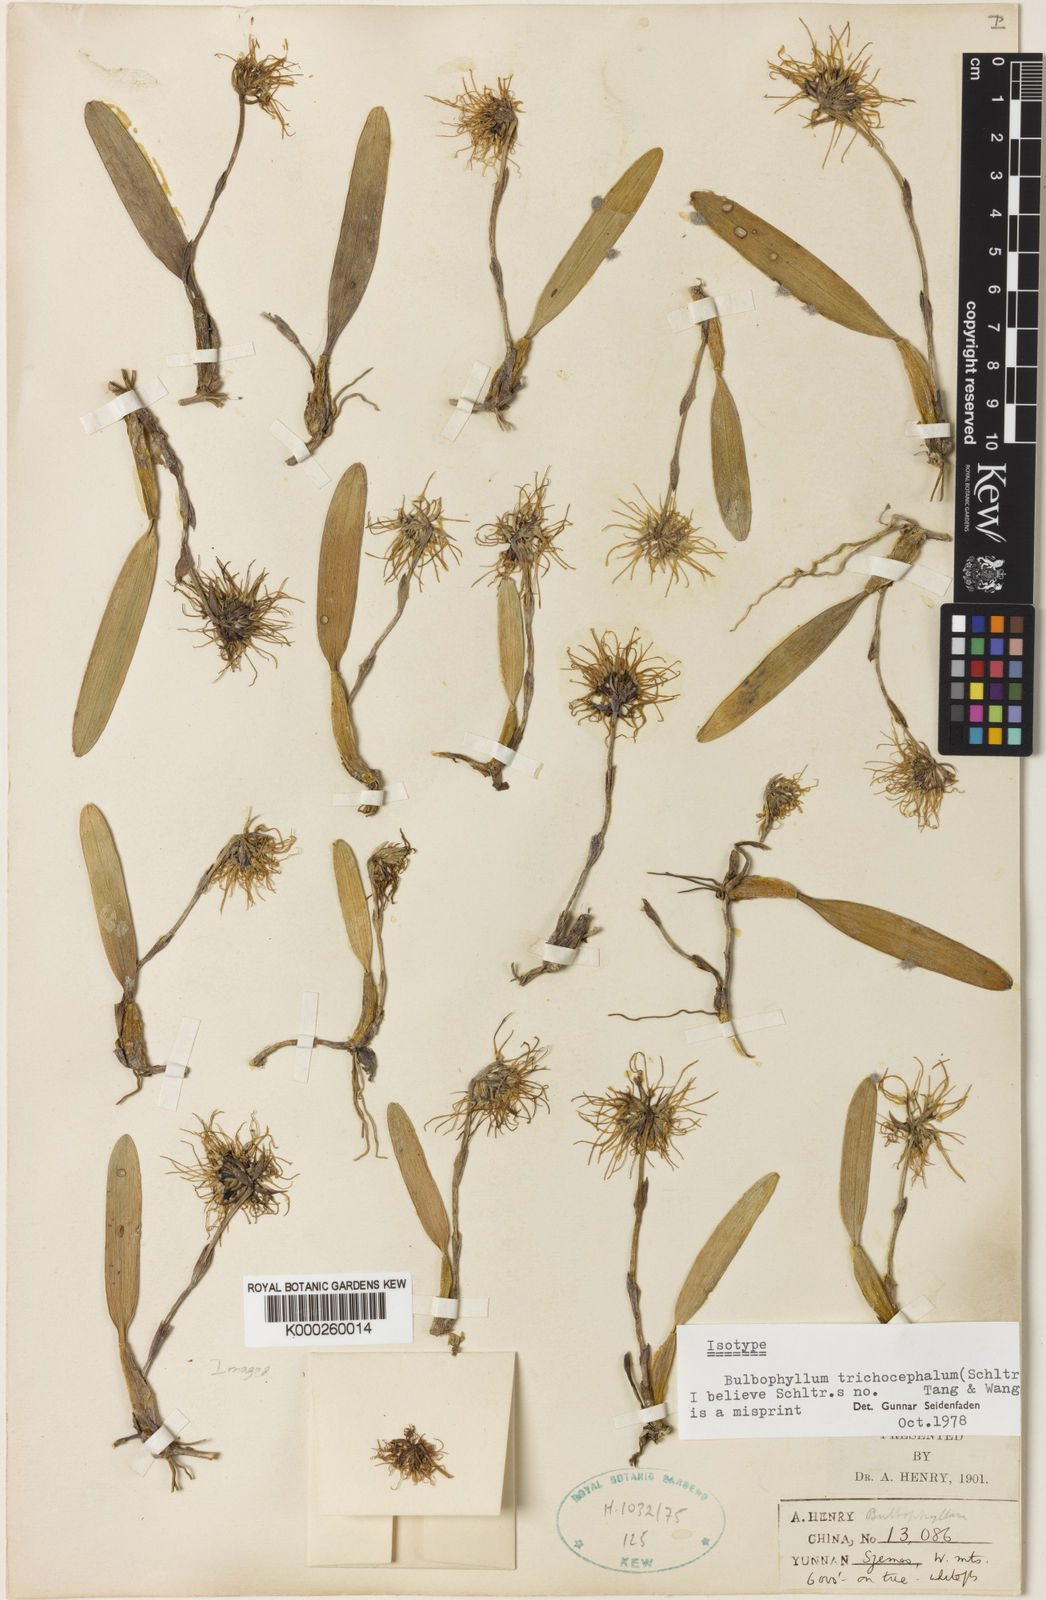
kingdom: Plantae
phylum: Tracheophyta
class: Liliopsida
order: Asparagales
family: Orchidaceae
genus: Bulbophyllum
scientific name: Bulbophyllum odoratissimum
